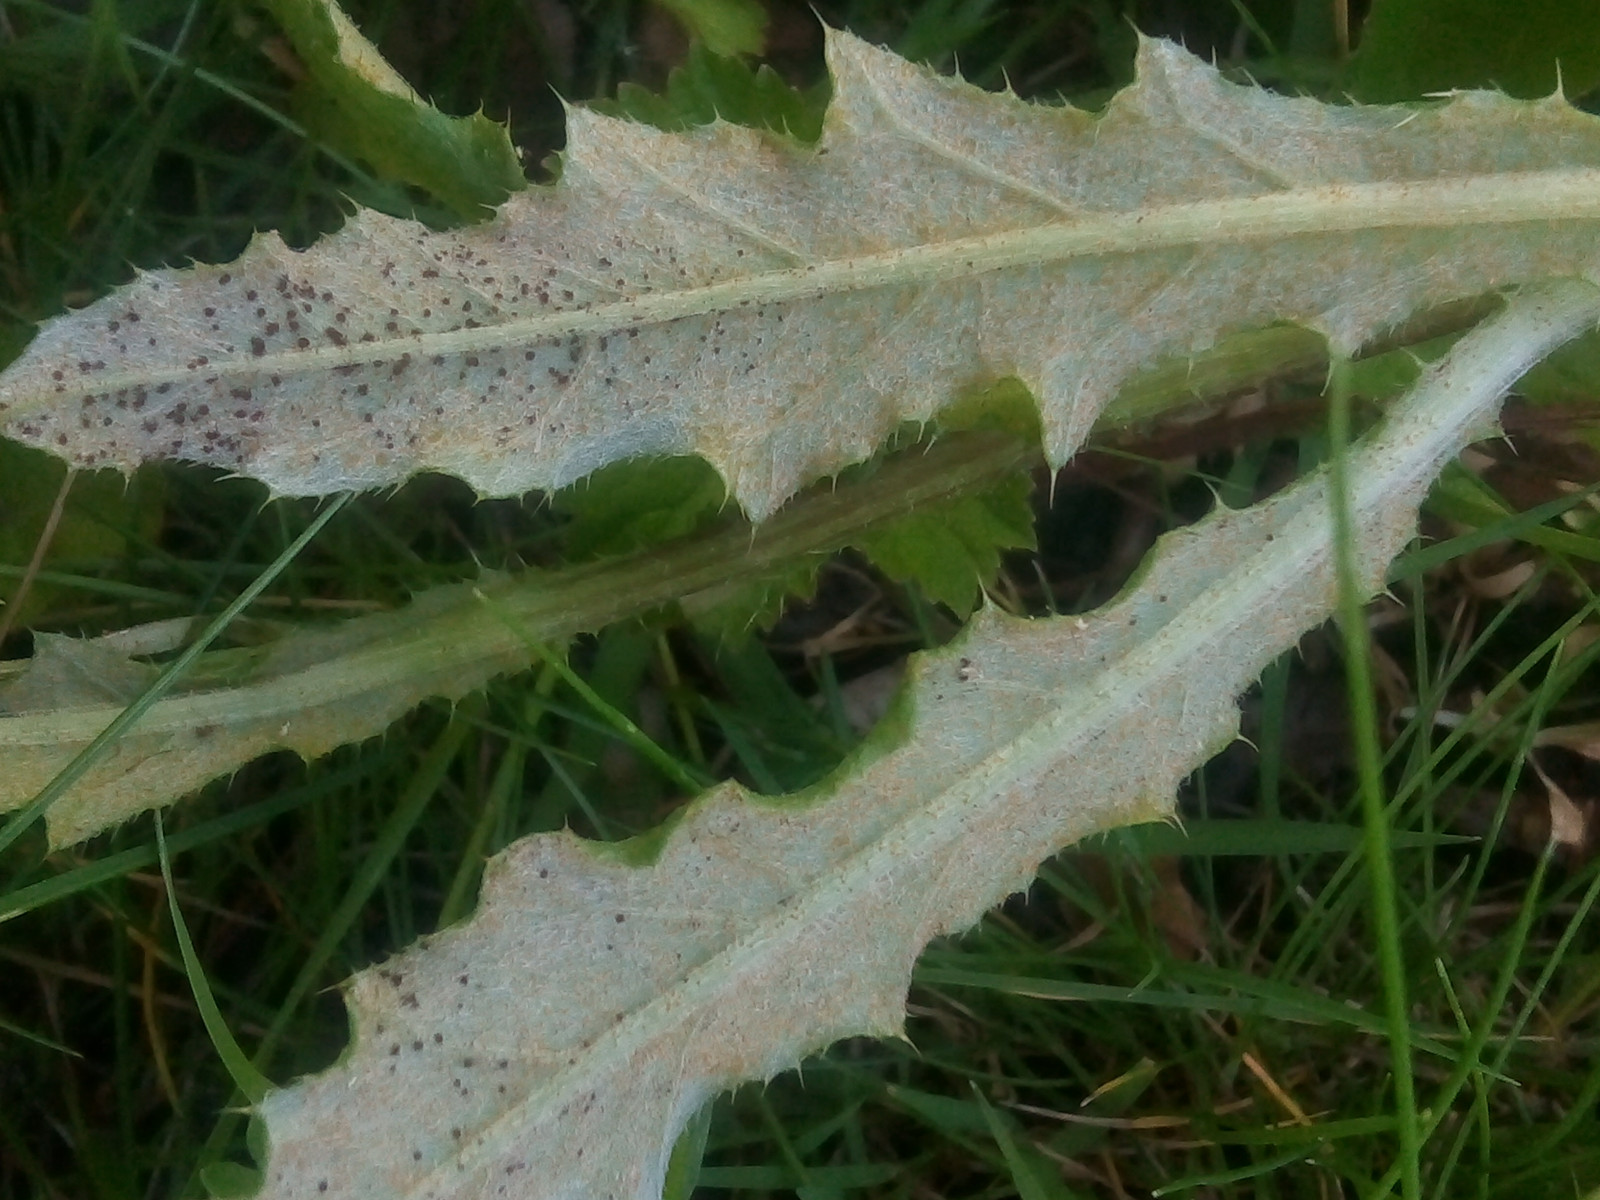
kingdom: Fungi
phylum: Basidiomycota
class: Pucciniomycetes
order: Pucciniales
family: Pucciniaceae
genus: Puccinia
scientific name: Puccinia suaveolens
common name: tidsel-tvecellerust
